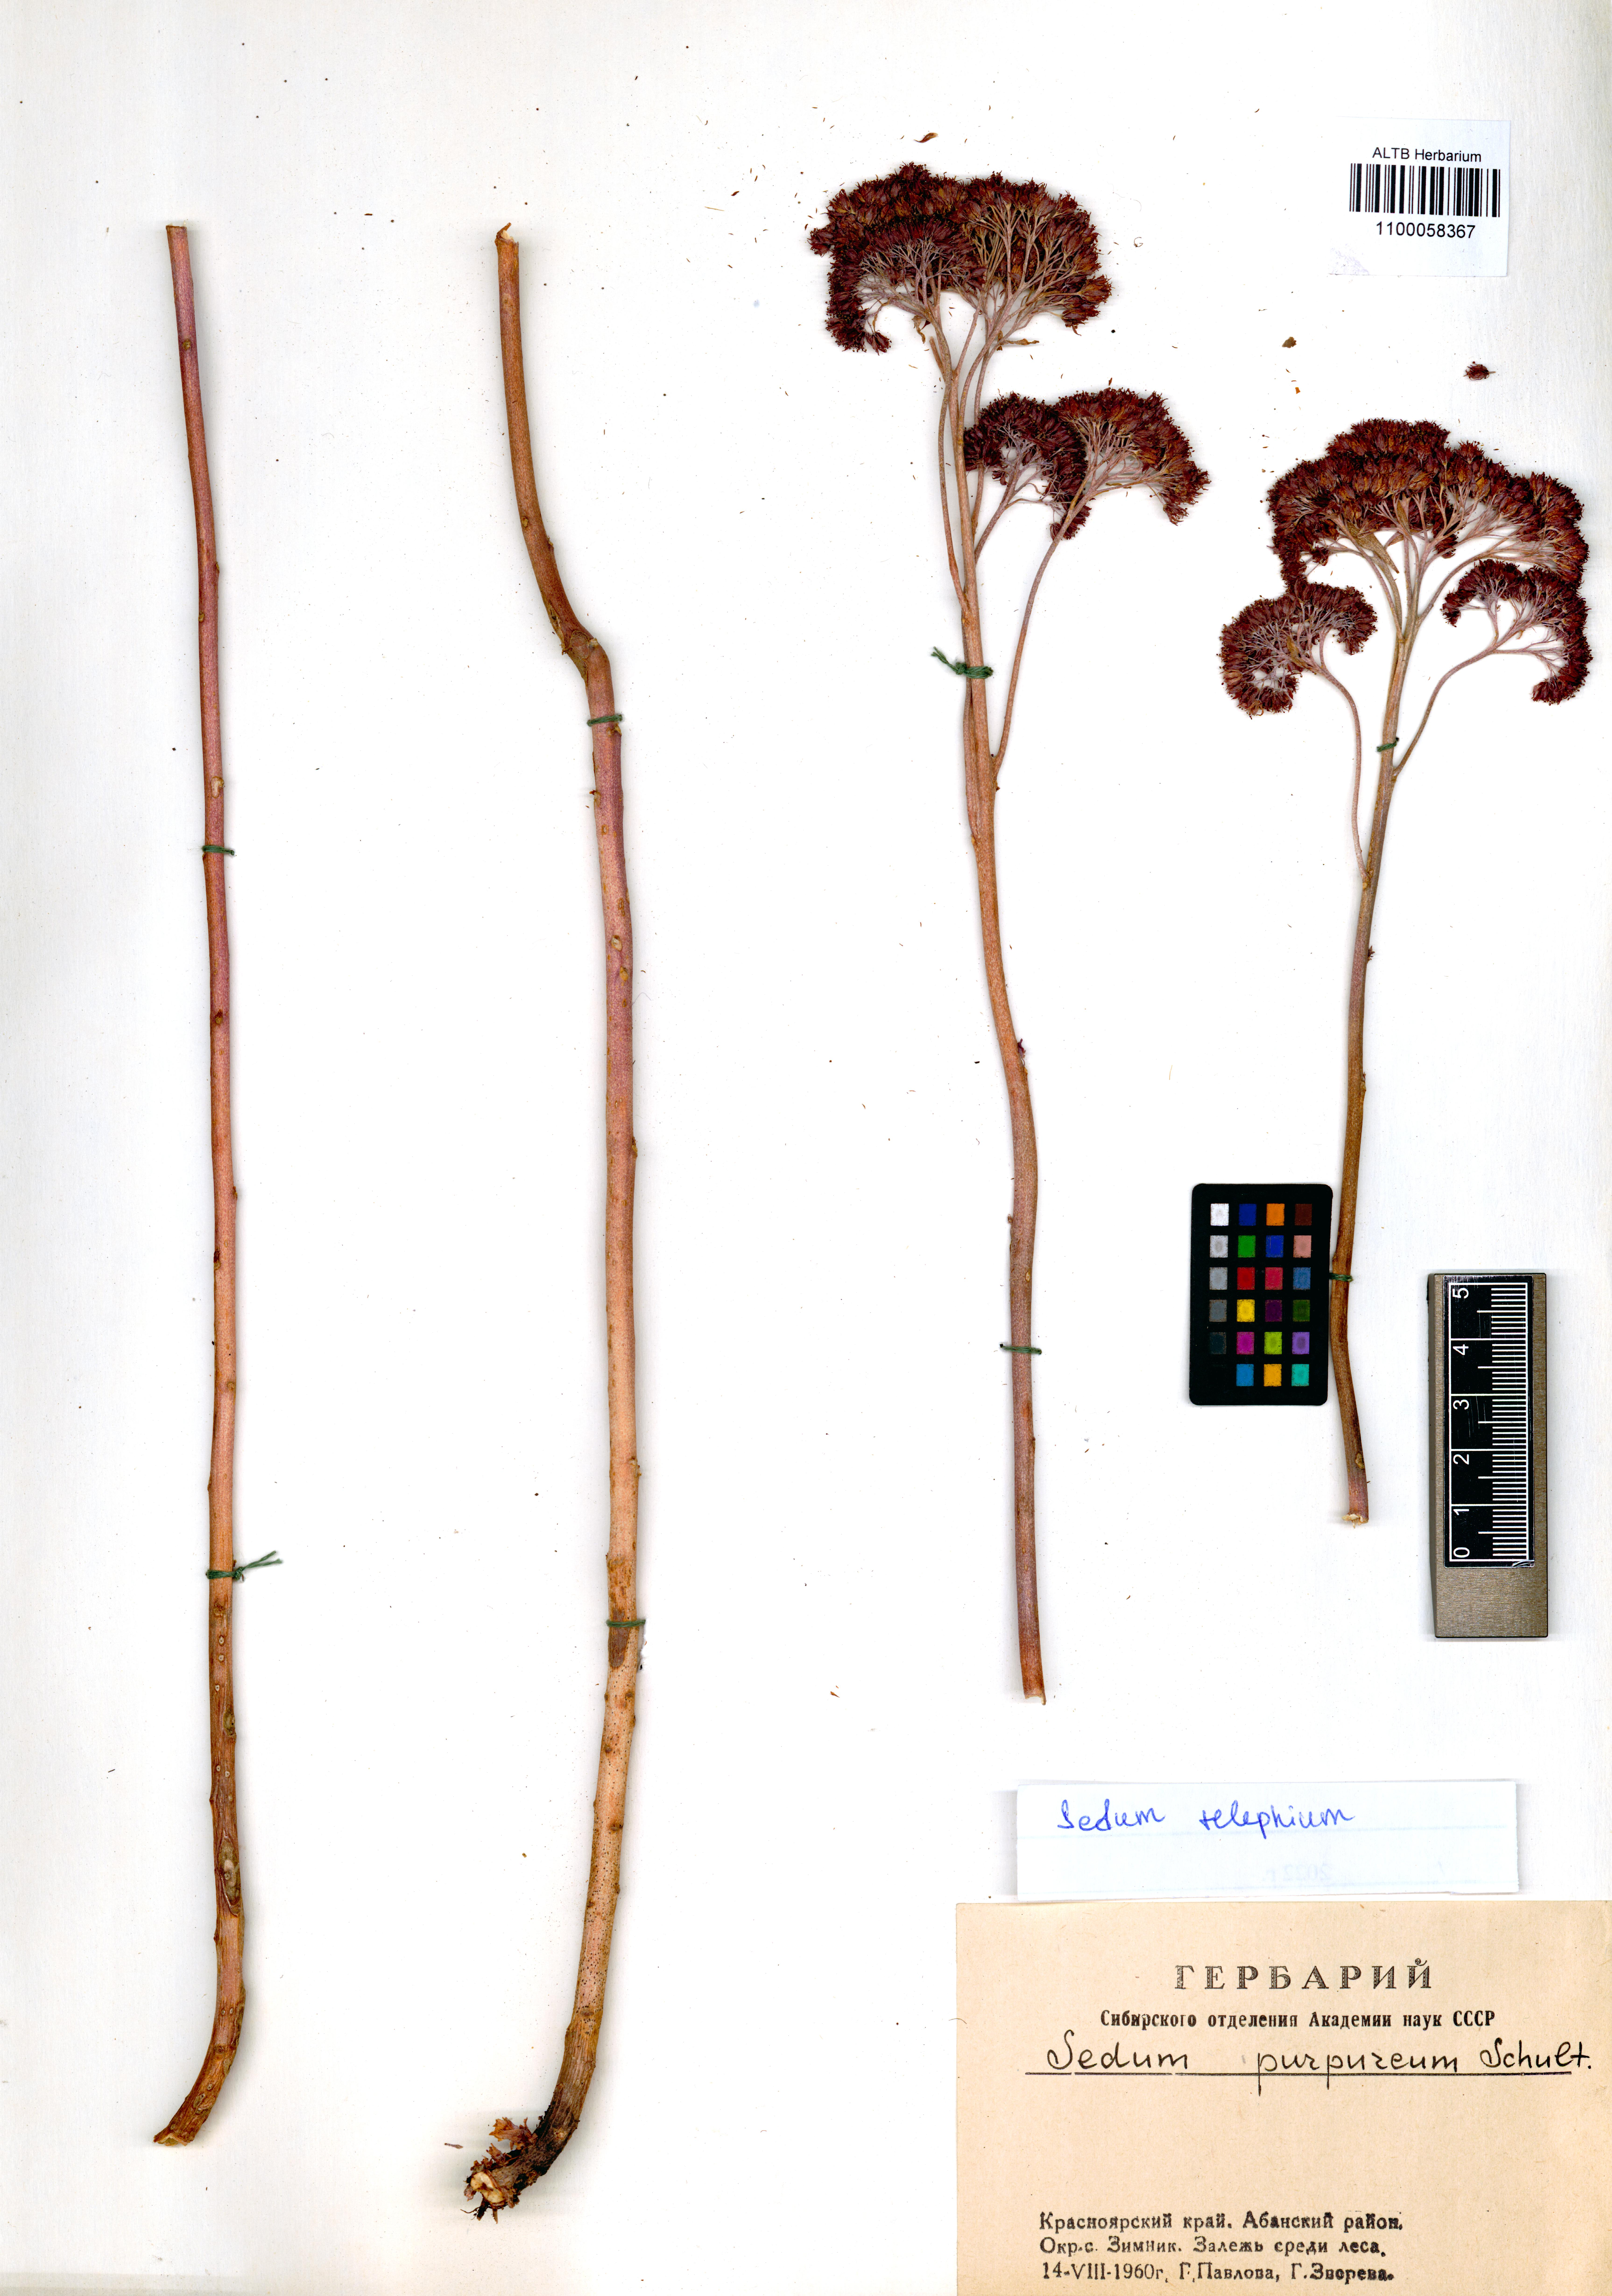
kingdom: Plantae
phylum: Tracheophyta
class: Magnoliopsida
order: Saxifragales
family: Crassulaceae
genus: Hylotelephium
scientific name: Hylotelephium telephium
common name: Live-forever
